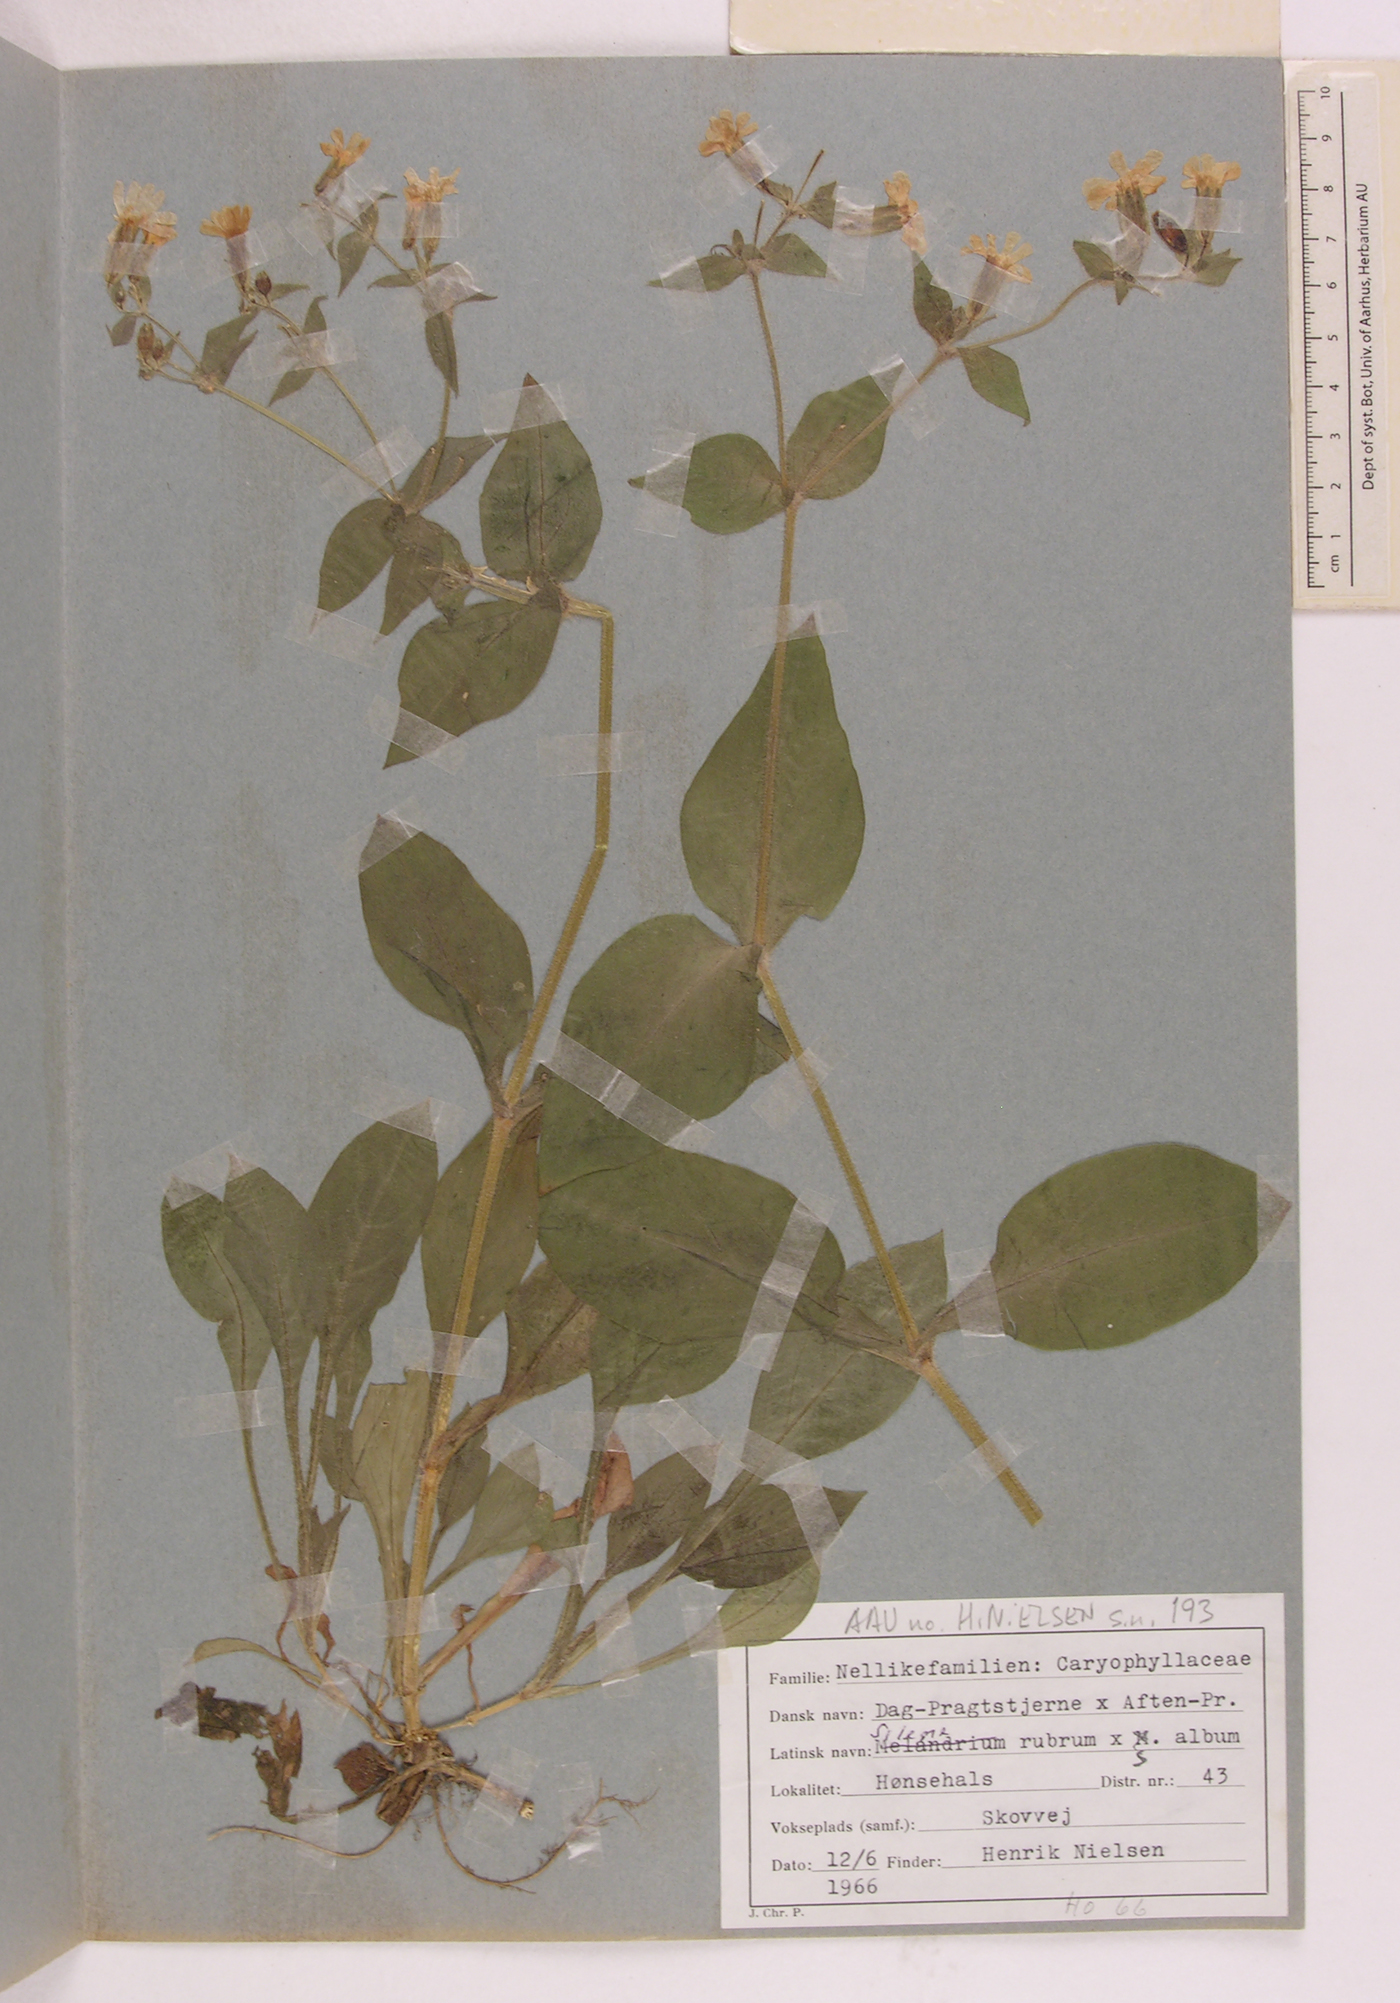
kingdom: Plantae
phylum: Tracheophyta
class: Magnoliopsida
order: Caryophyllales
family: Caryophyllaceae
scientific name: Caryophyllaceae
